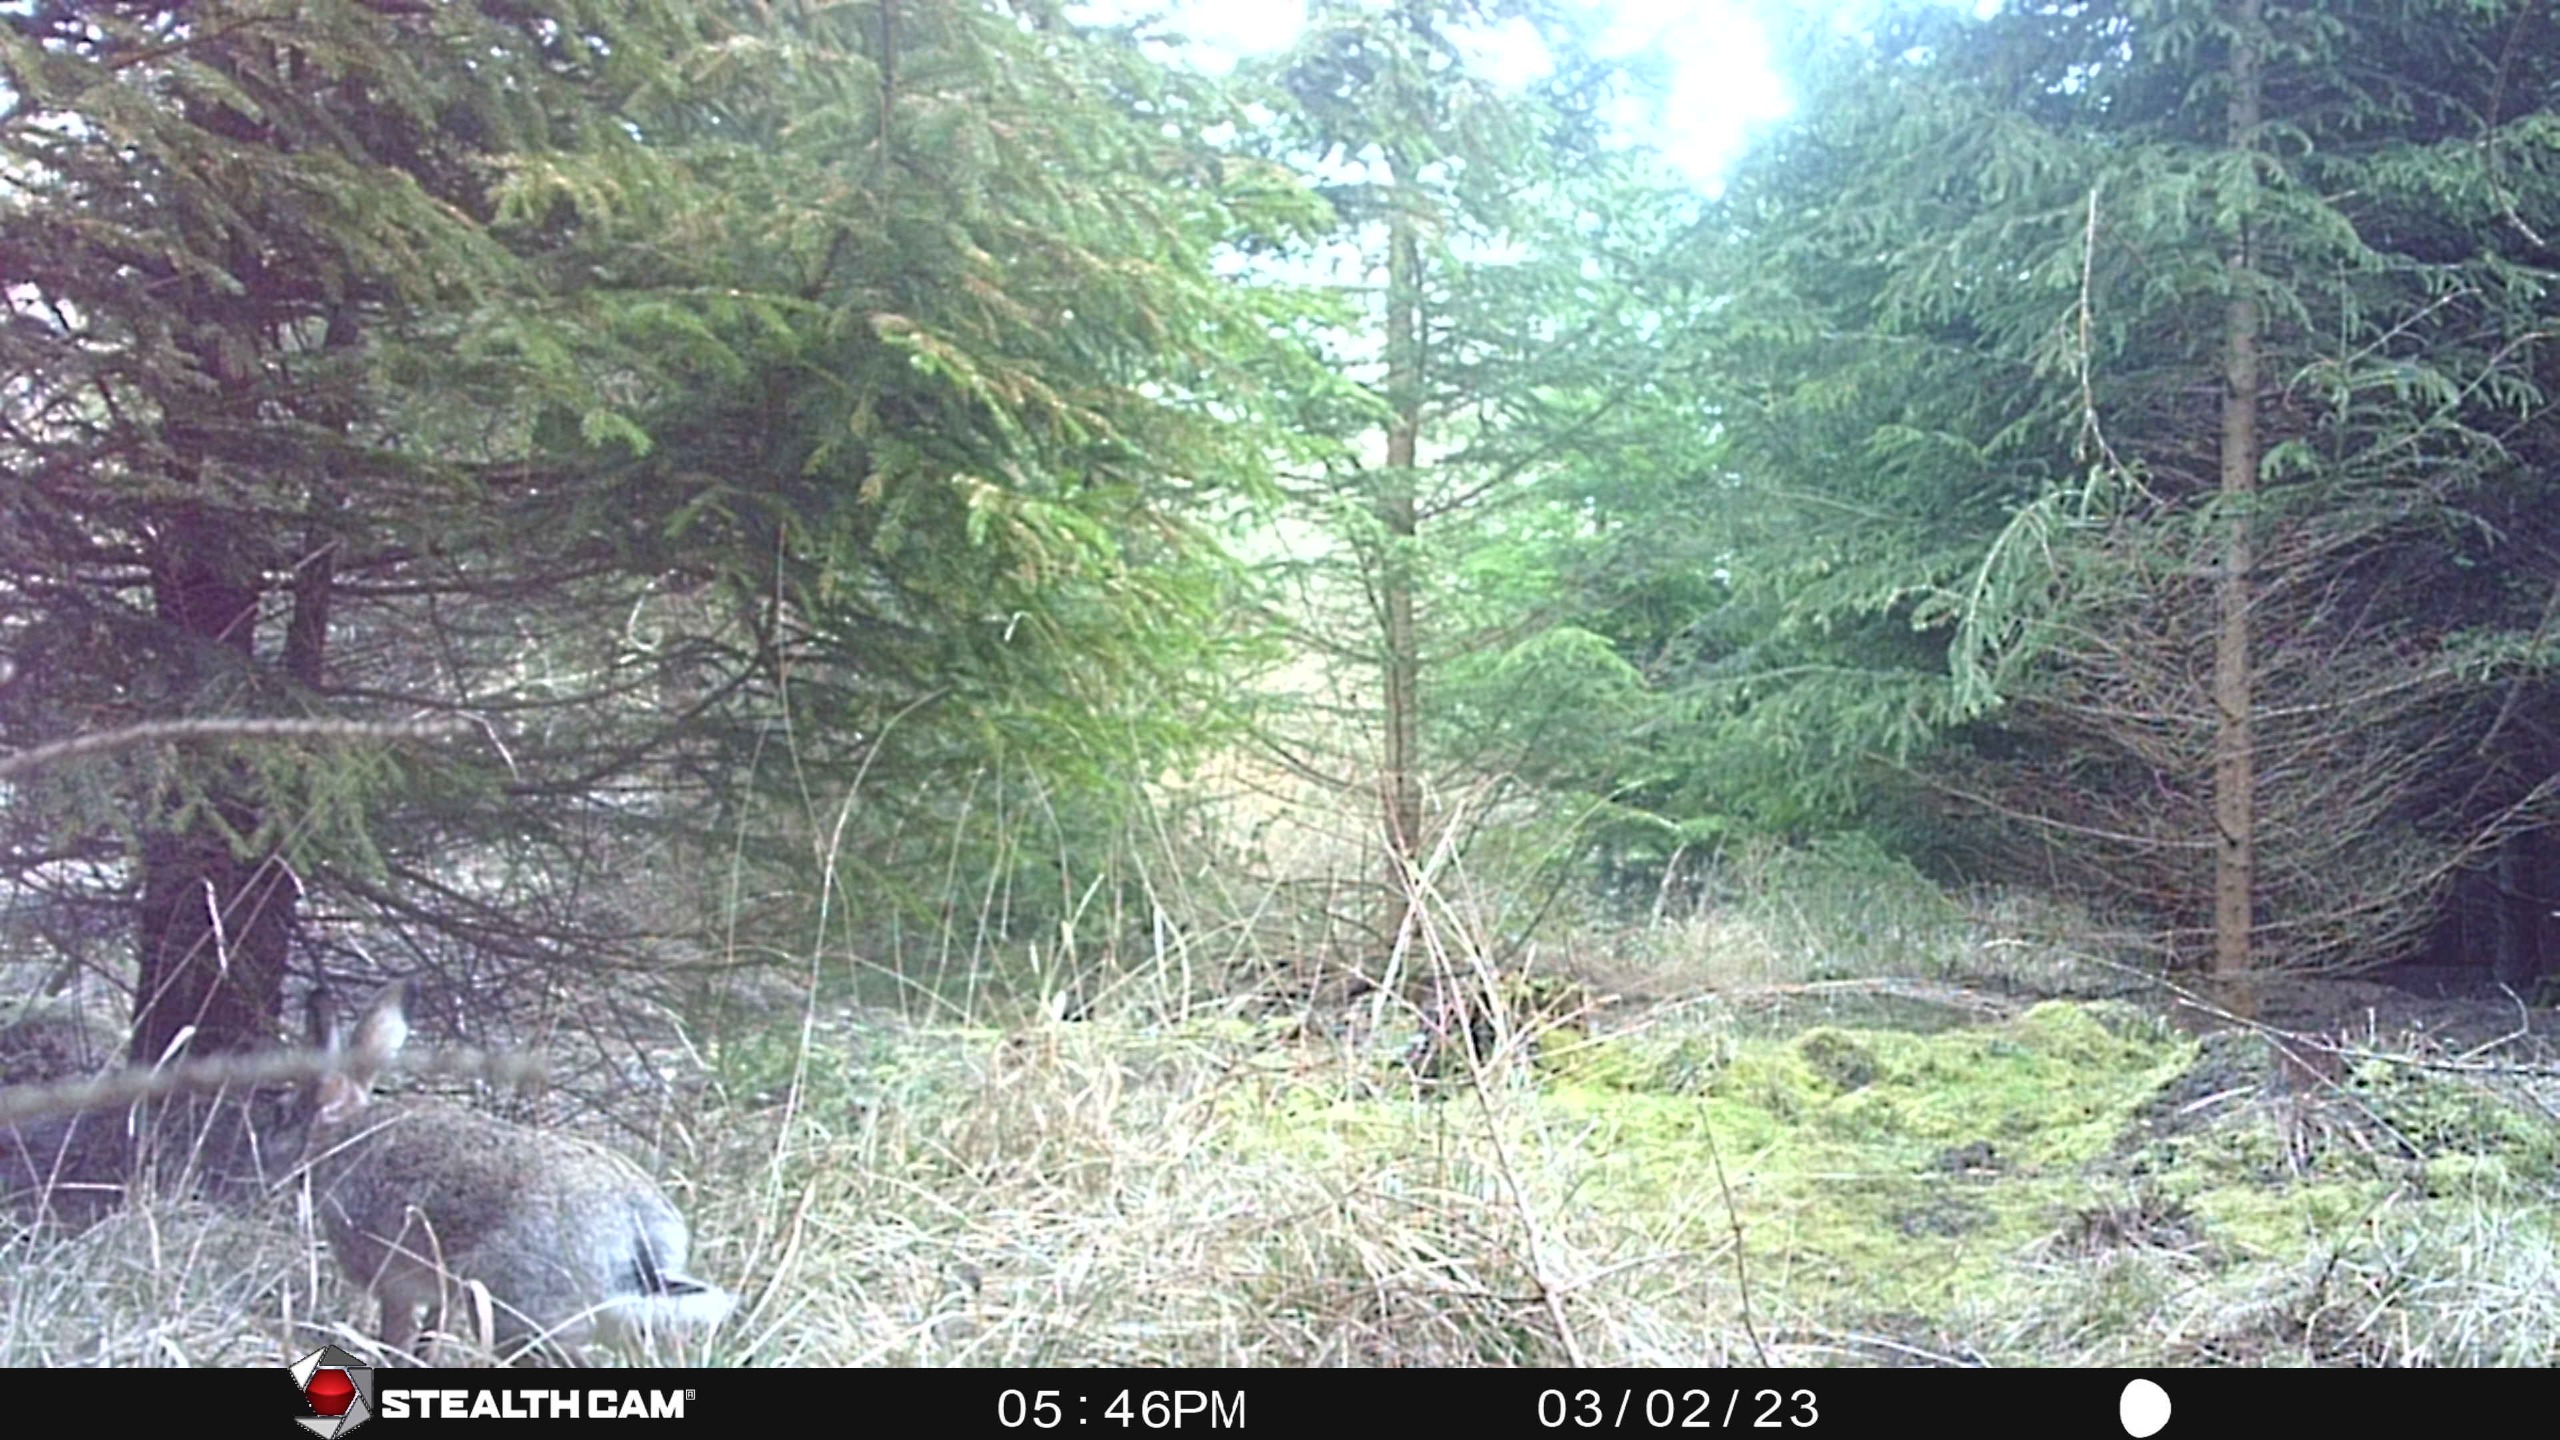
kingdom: Animalia
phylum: Chordata
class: Mammalia
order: Lagomorpha
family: Leporidae
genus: Lepus
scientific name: Lepus europaeus
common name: Hare
